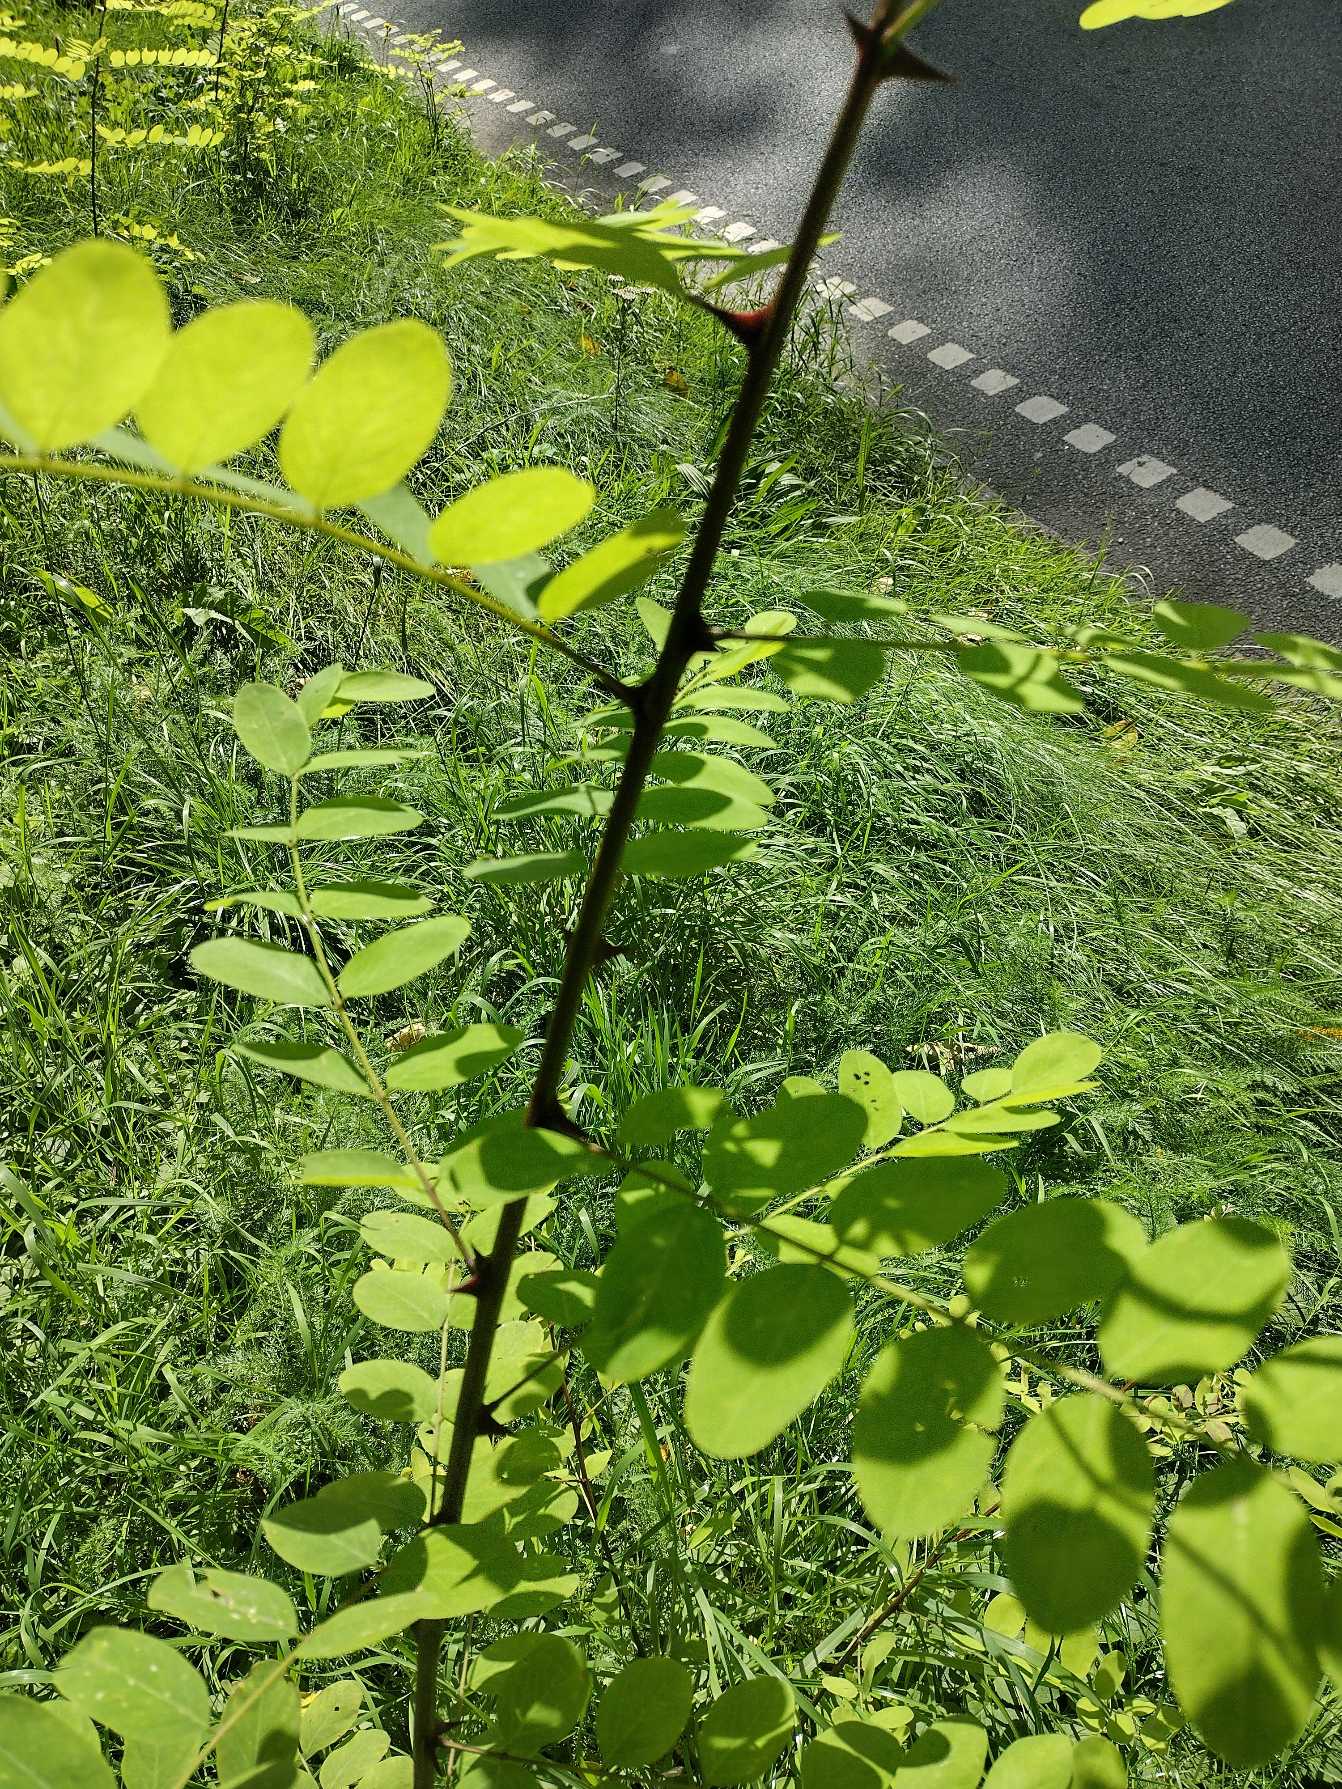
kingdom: Plantae
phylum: Tracheophyta
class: Magnoliopsida
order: Fabales
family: Fabaceae
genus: Robinia
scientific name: Robinia pseudoacacia
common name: Robinie
